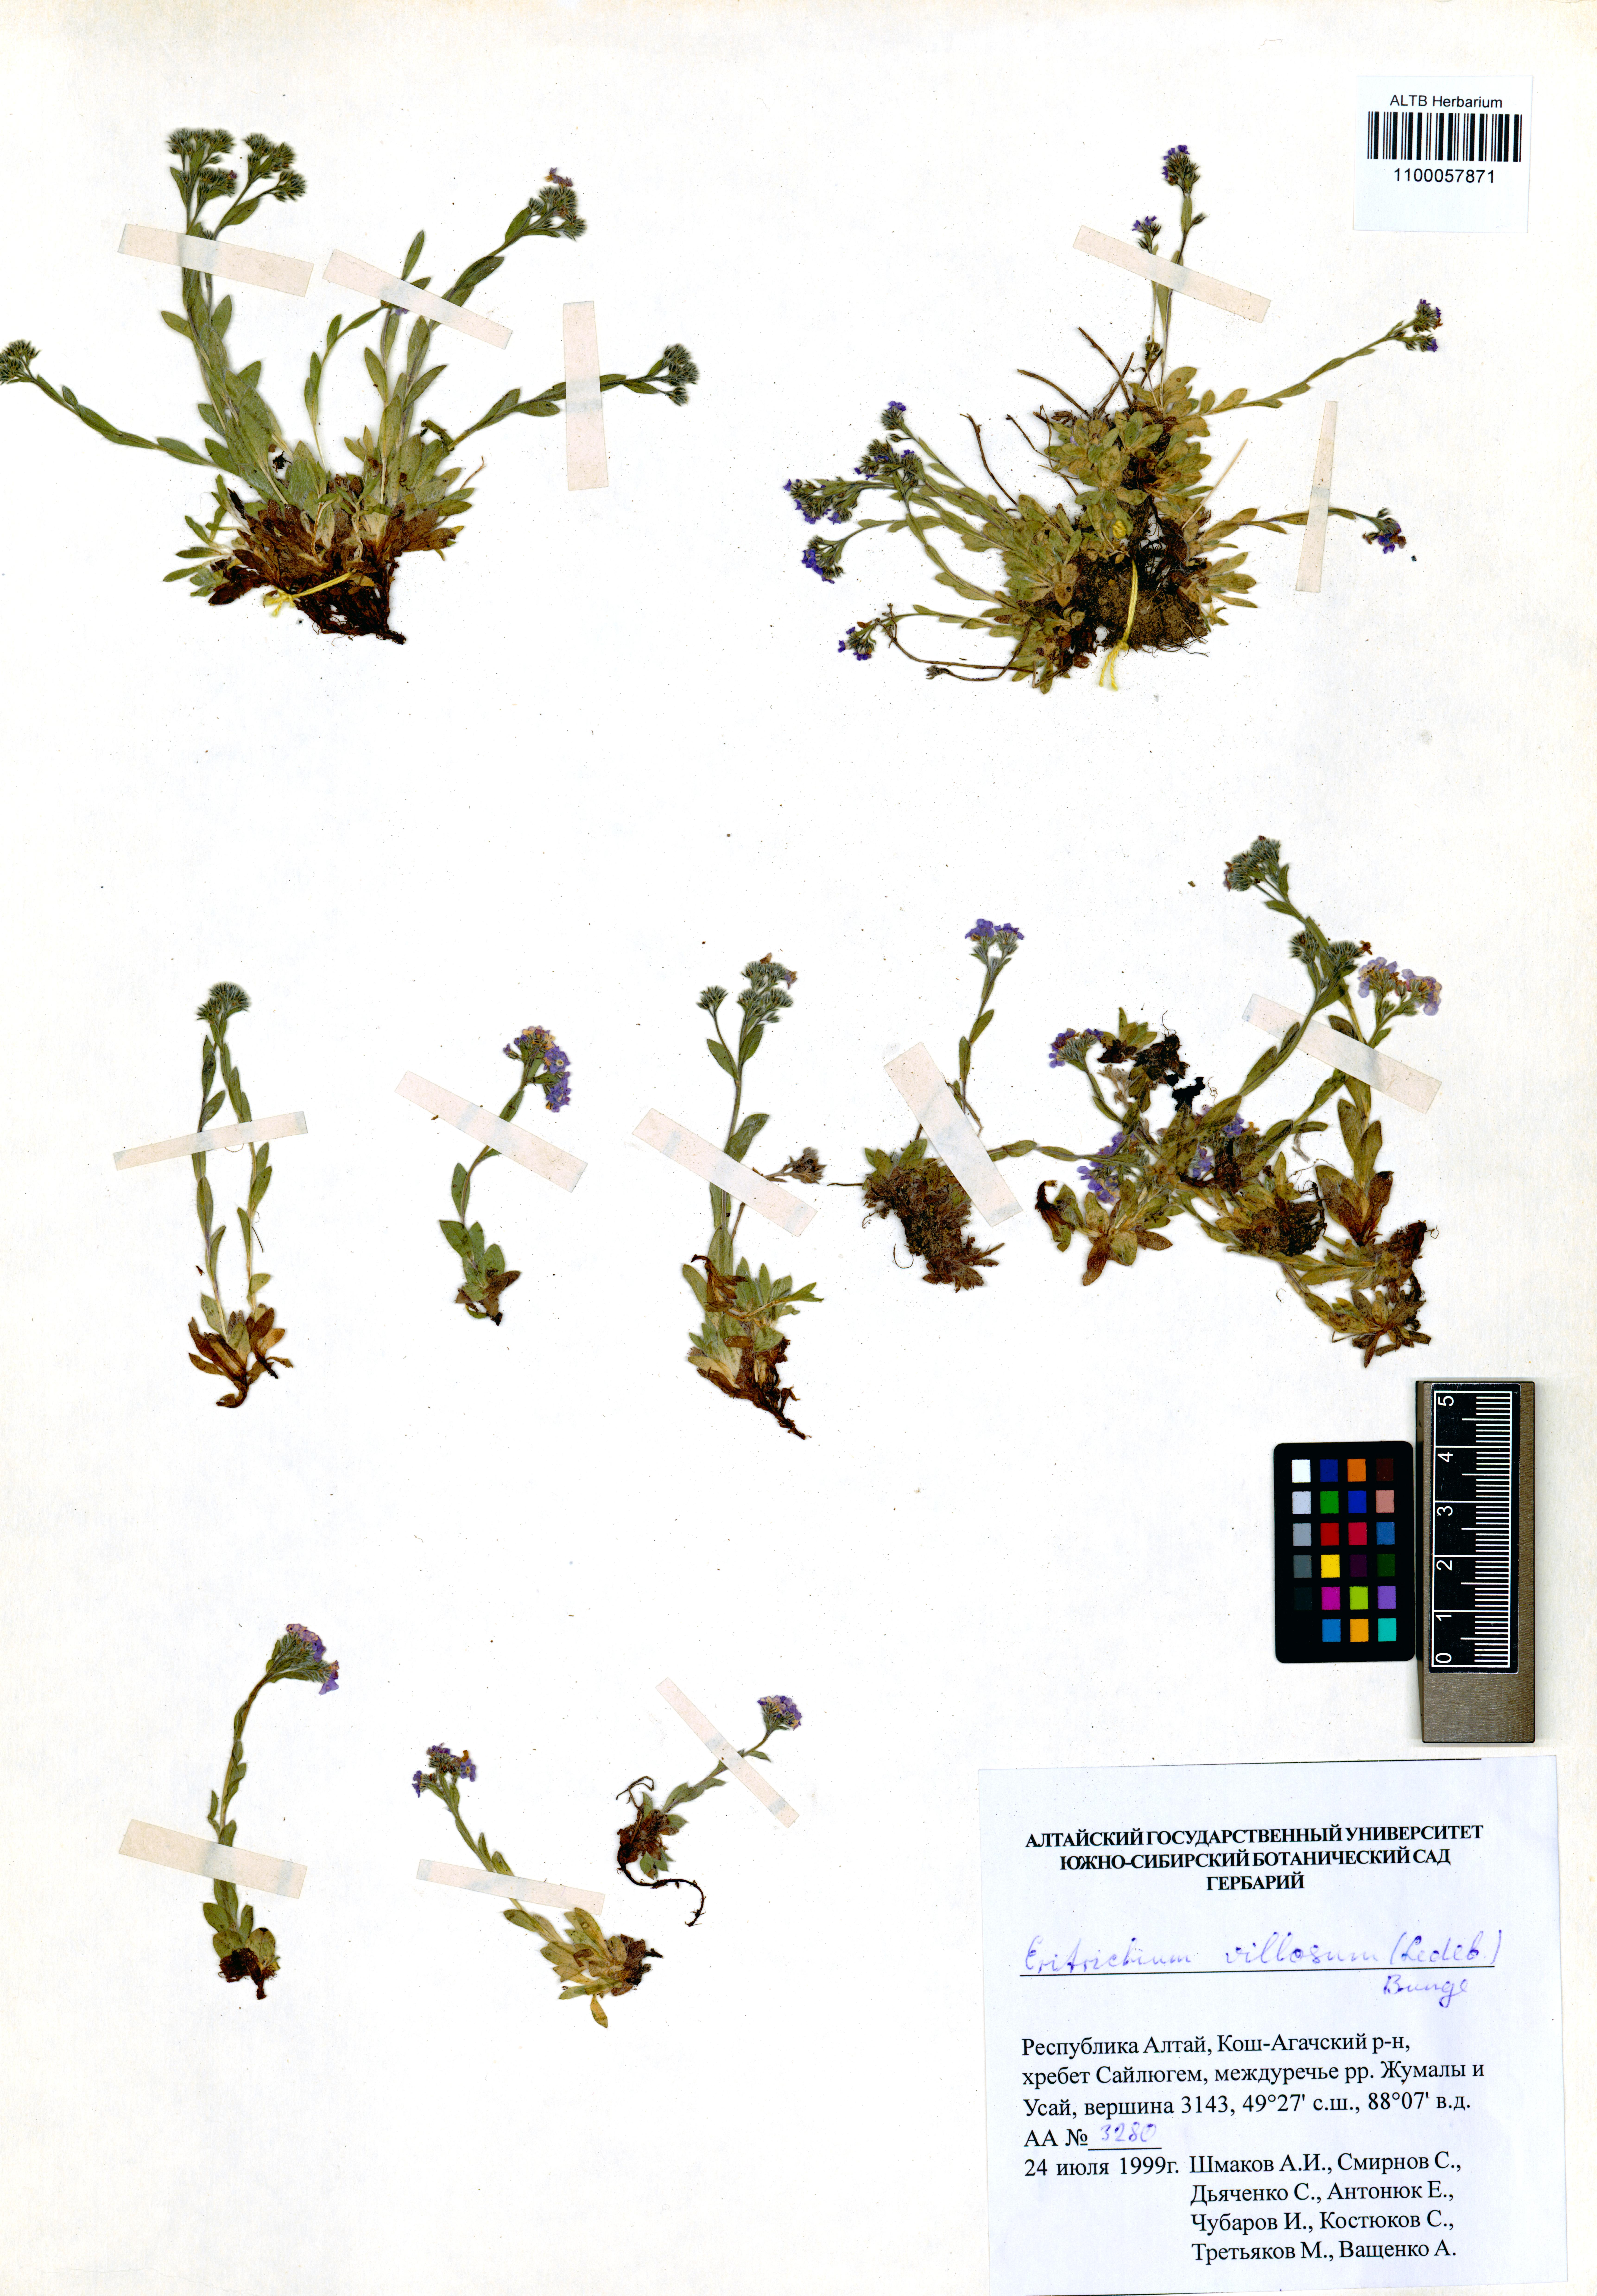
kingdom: Plantae
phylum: Tracheophyta
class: Magnoliopsida
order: Boraginales
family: Boraginaceae
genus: Eritrichium
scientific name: Eritrichium villosum
